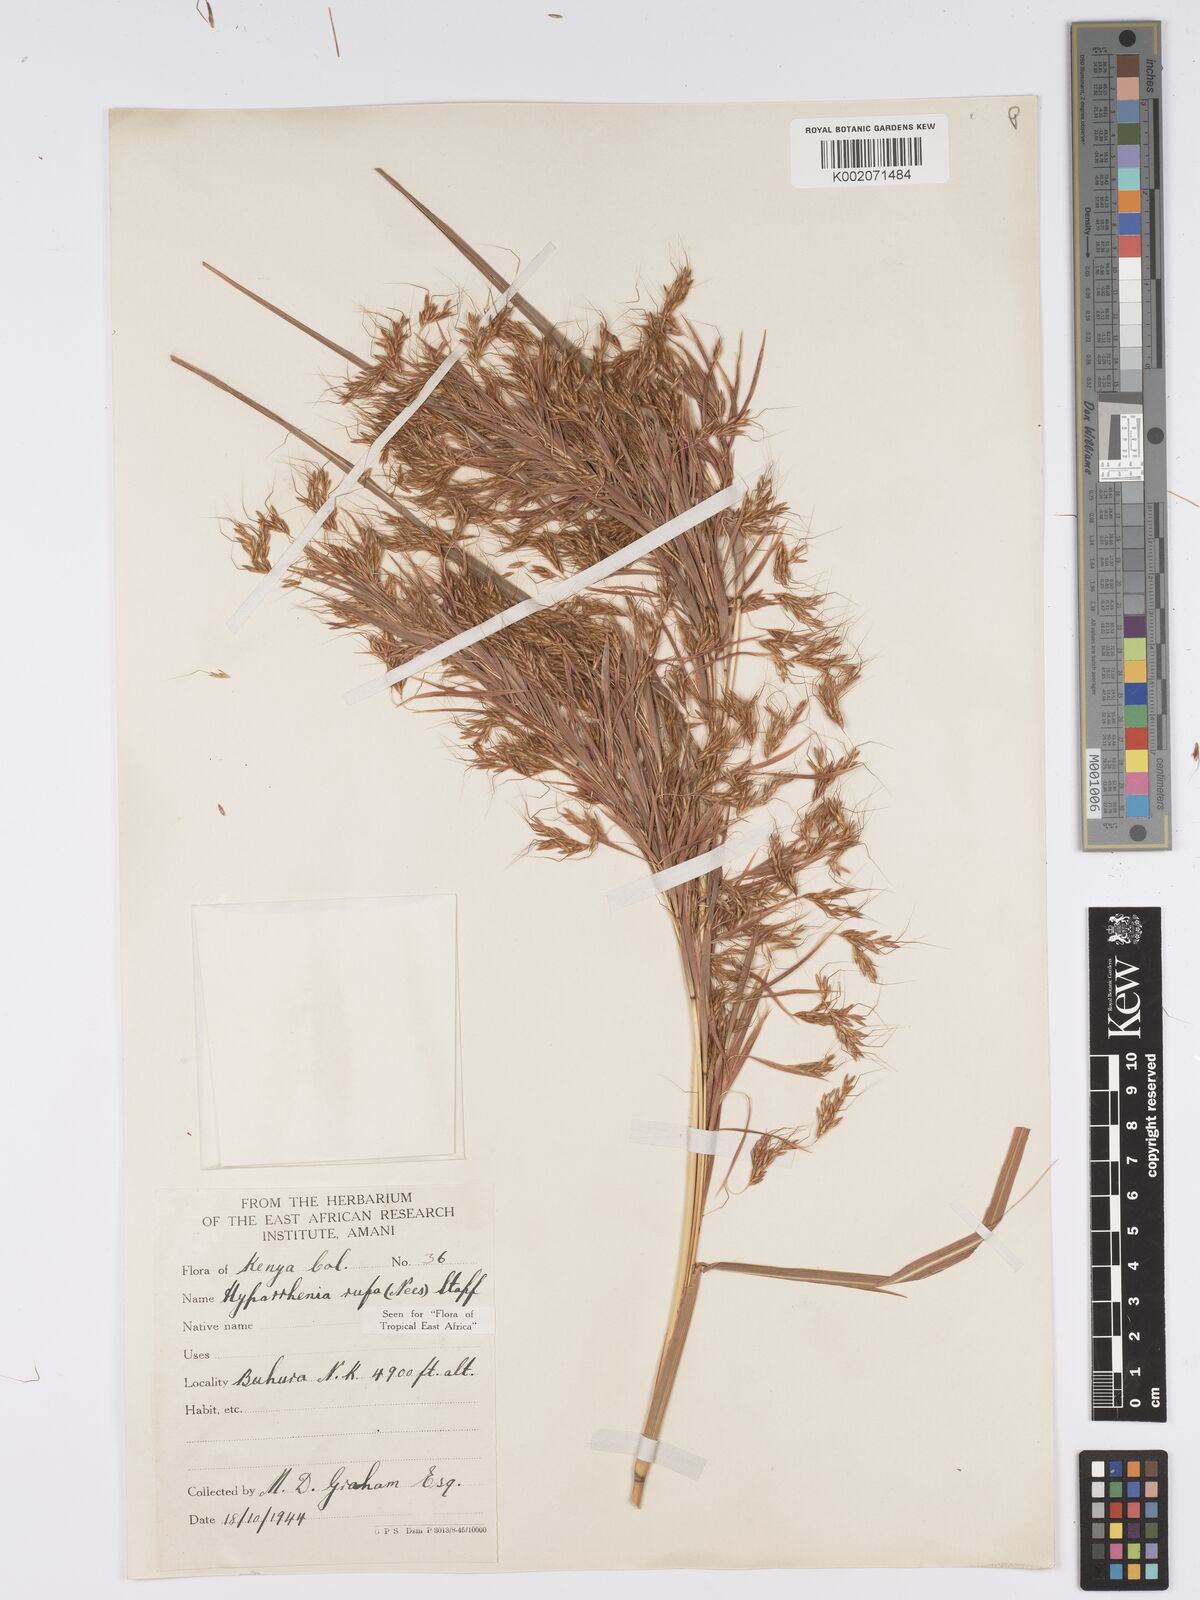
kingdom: Plantae
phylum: Tracheophyta
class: Liliopsida
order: Poales
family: Poaceae
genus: Hyparrhenia
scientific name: Hyparrhenia rufa
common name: Jaraguagrass
